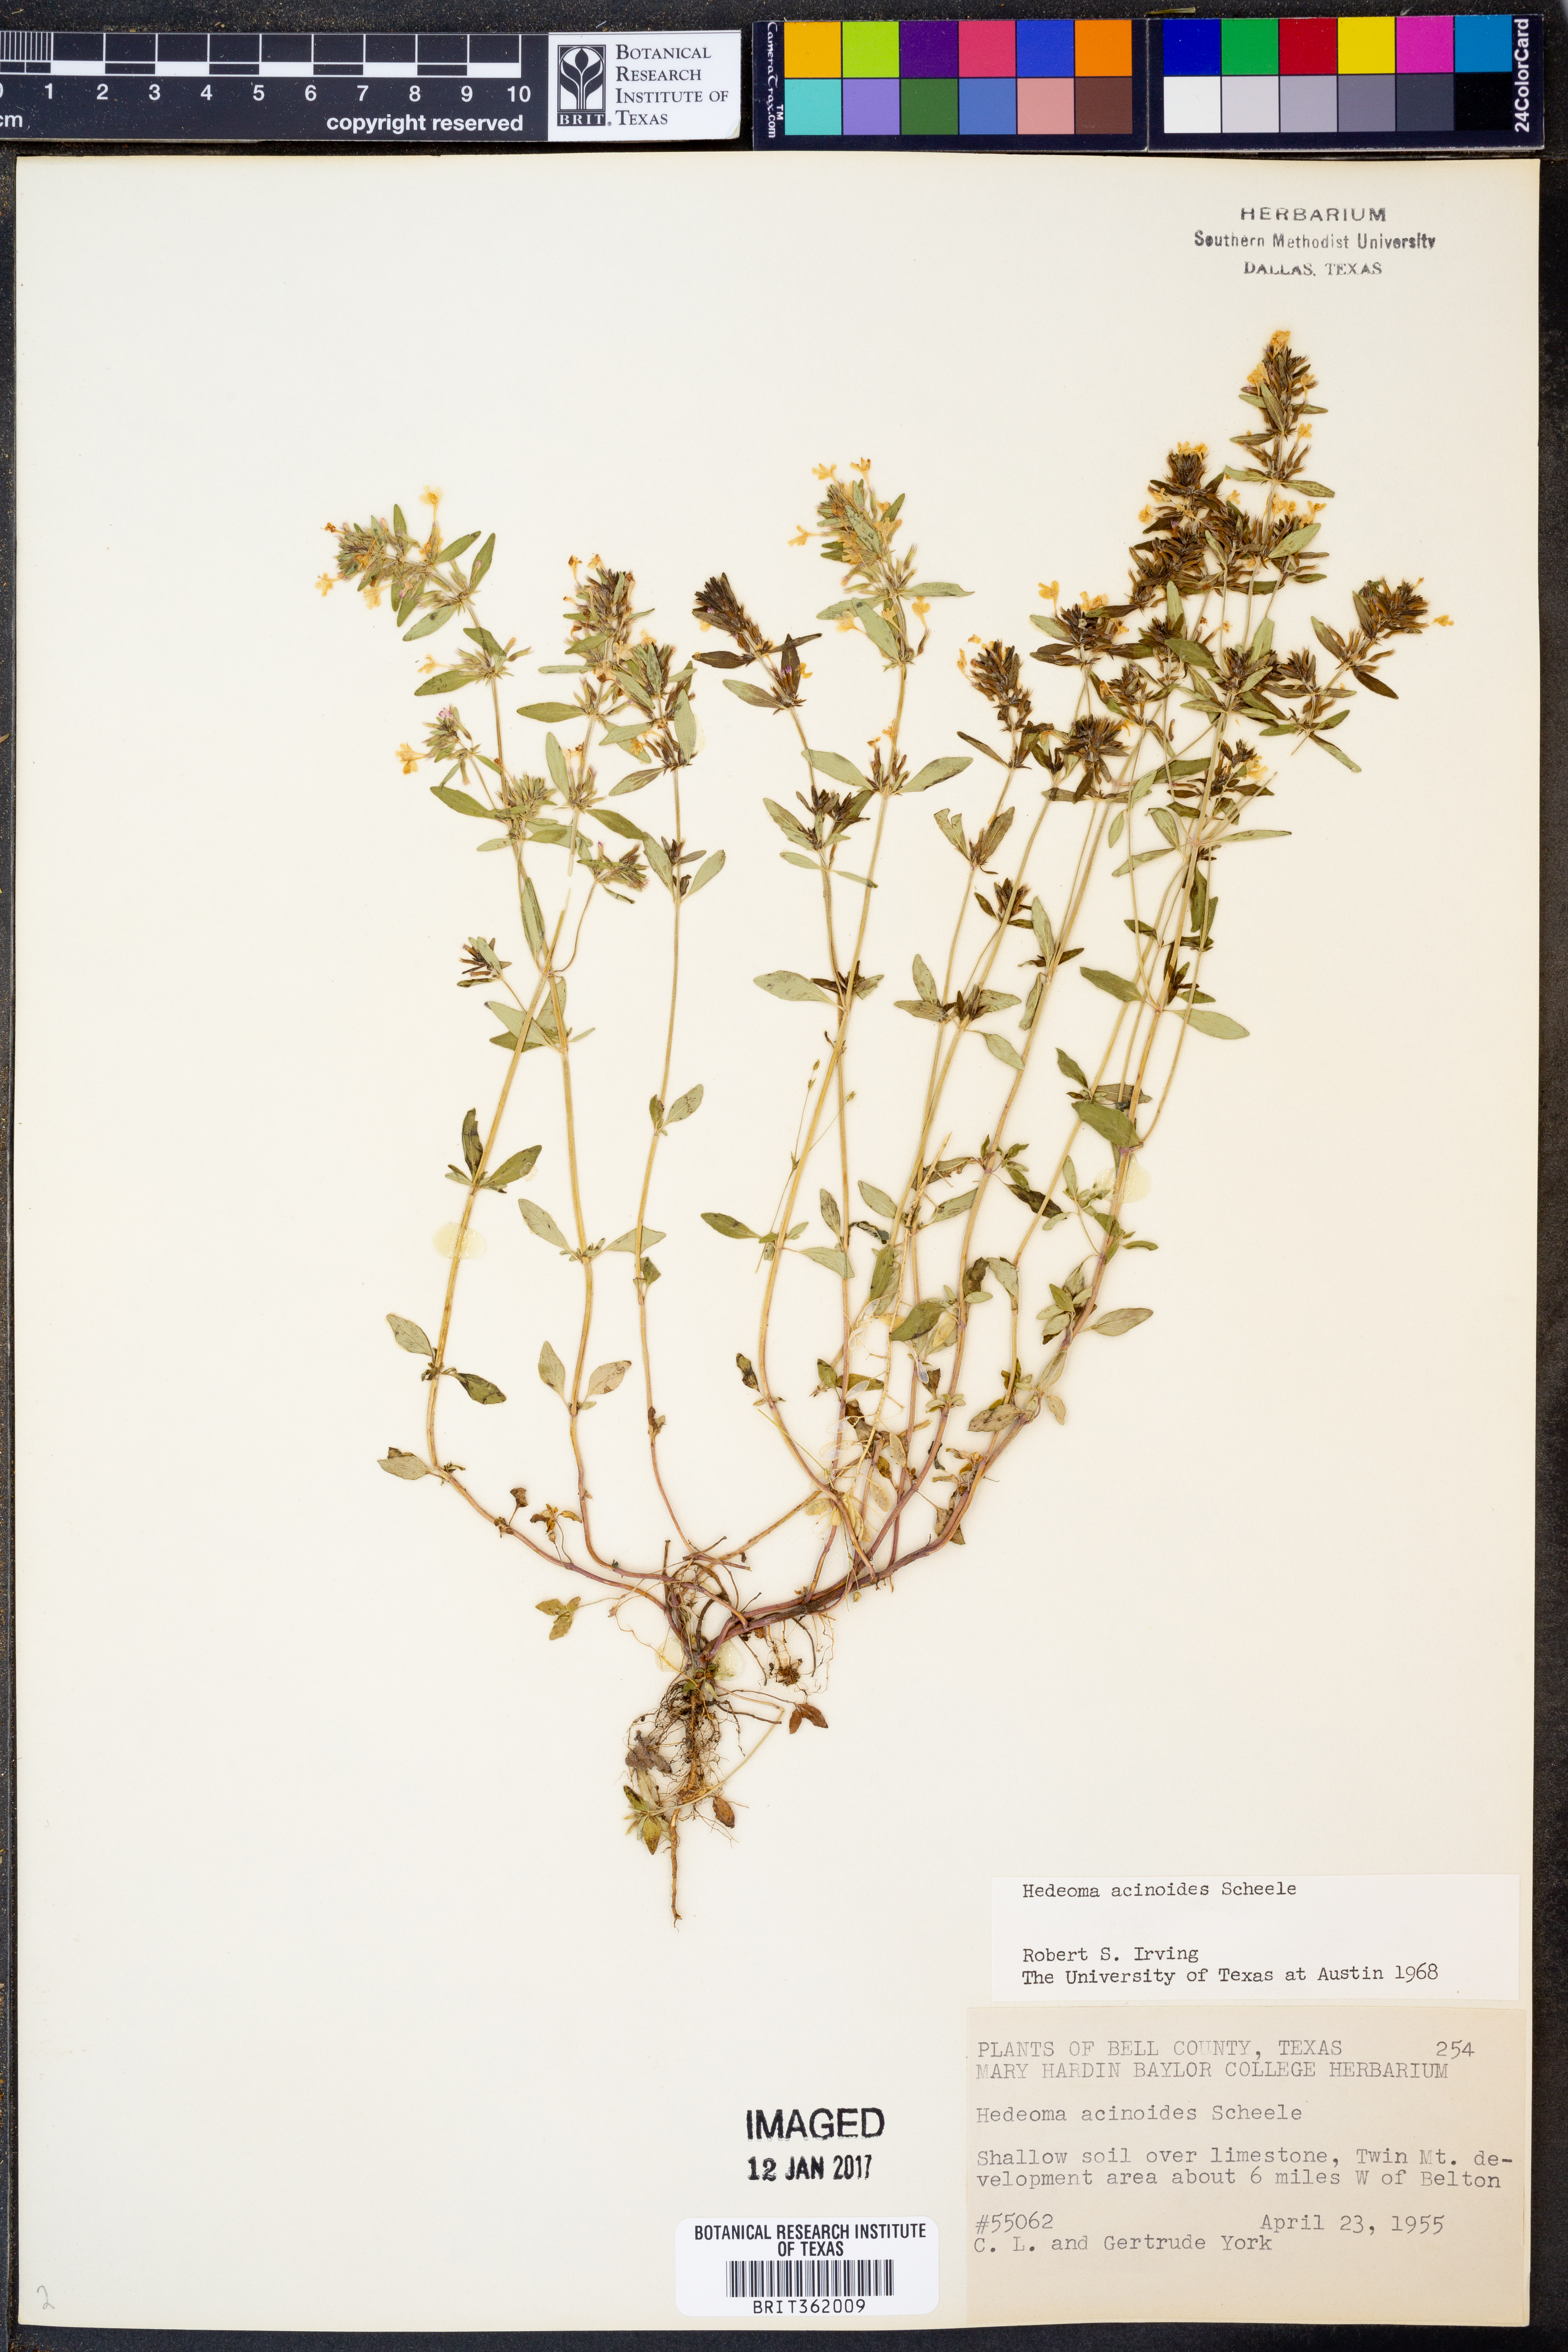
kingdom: Plantae
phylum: Tracheophyta
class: Magnoliopsida
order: Lamiales
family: Lamiaceae
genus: Hedeoma
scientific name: Hedeoma acinoides
